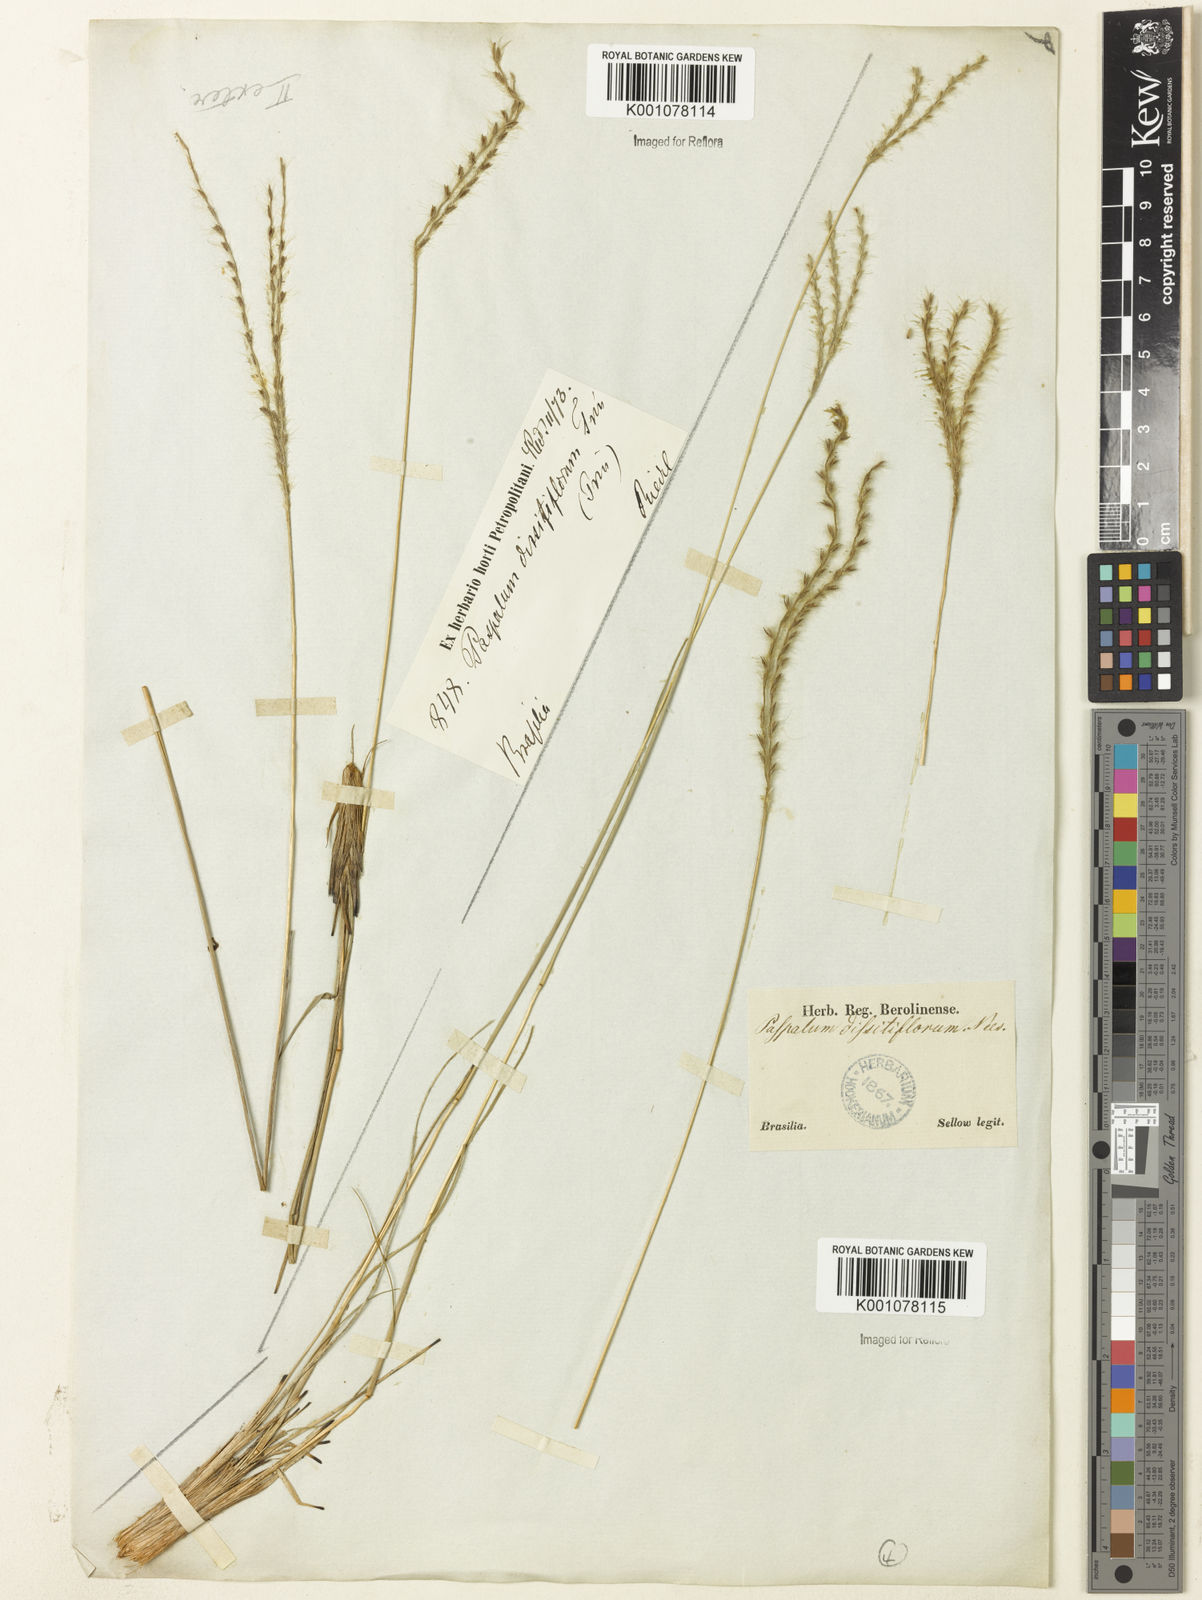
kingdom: Plantae
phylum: Tracheophyta
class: Liliopsida
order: Poales
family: Poaceae
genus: Axonopus
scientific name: Axonopus brasiliensis
